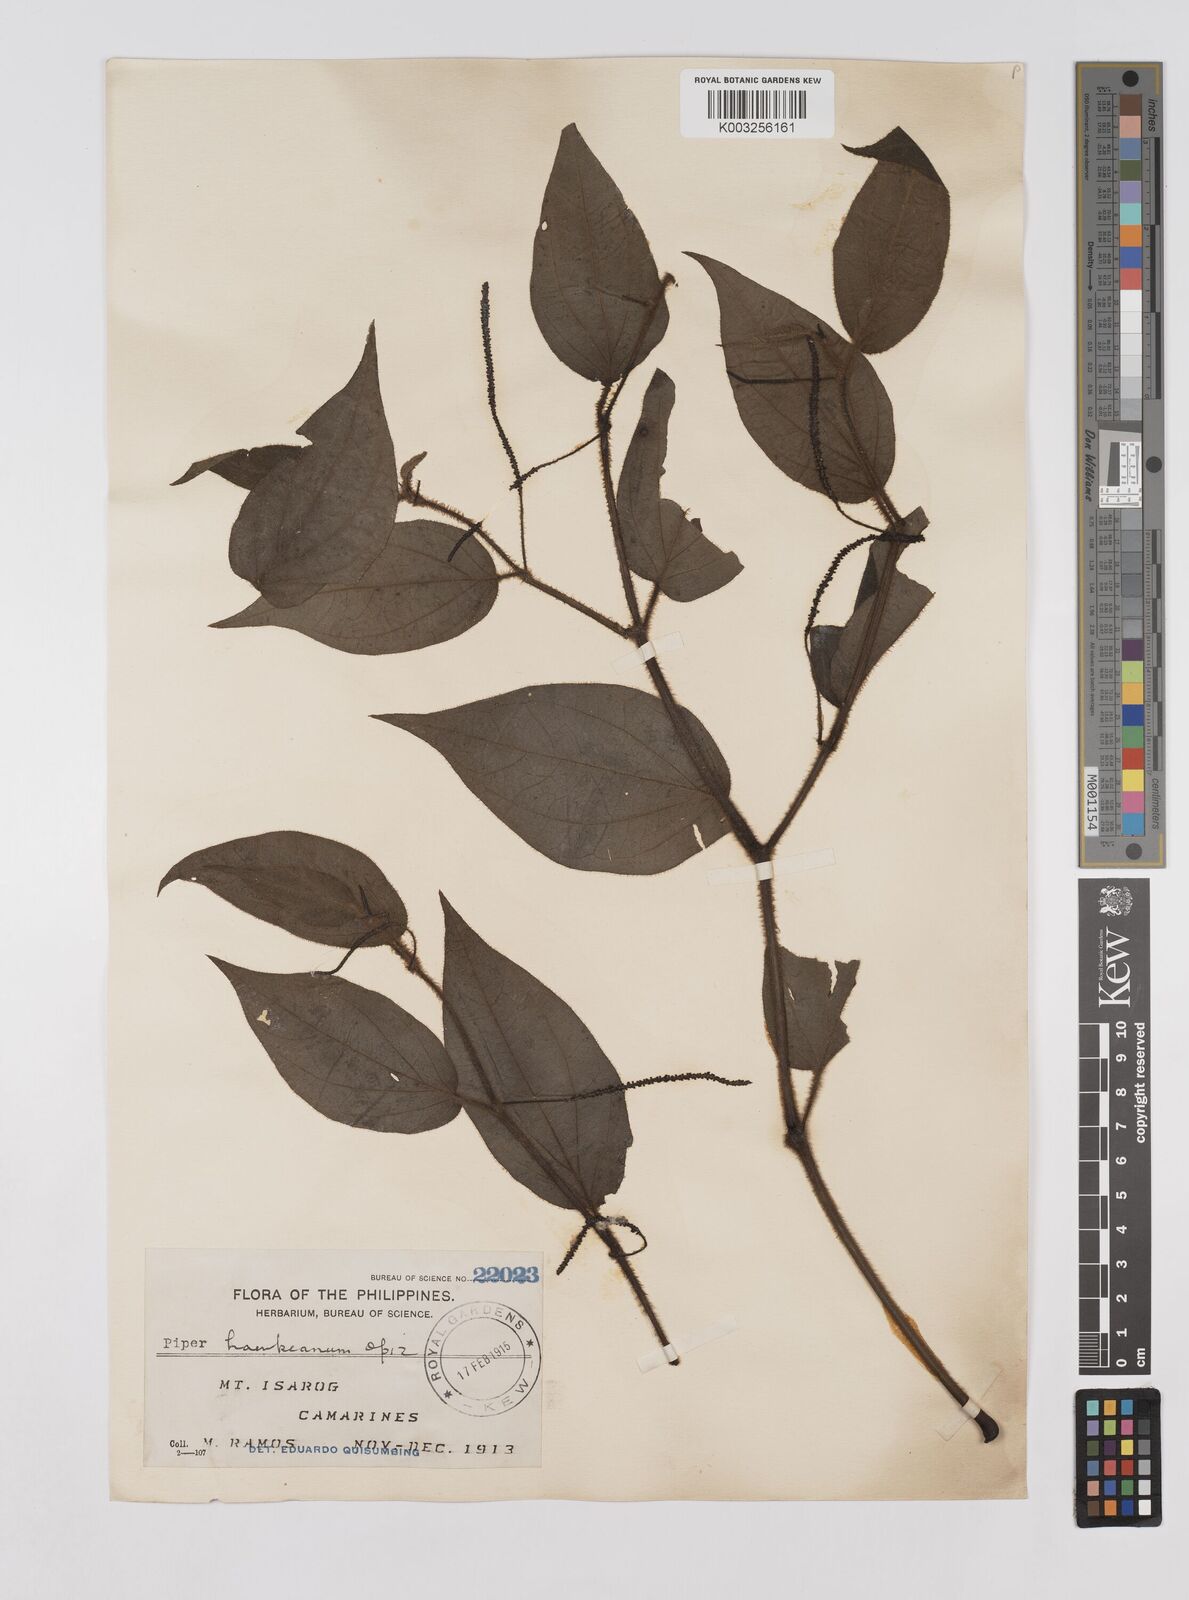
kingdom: Plantae
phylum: Tracheophyta
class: Magnoliopsida
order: Piperales
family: Piperaceae
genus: Piper
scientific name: Piper lanatum
